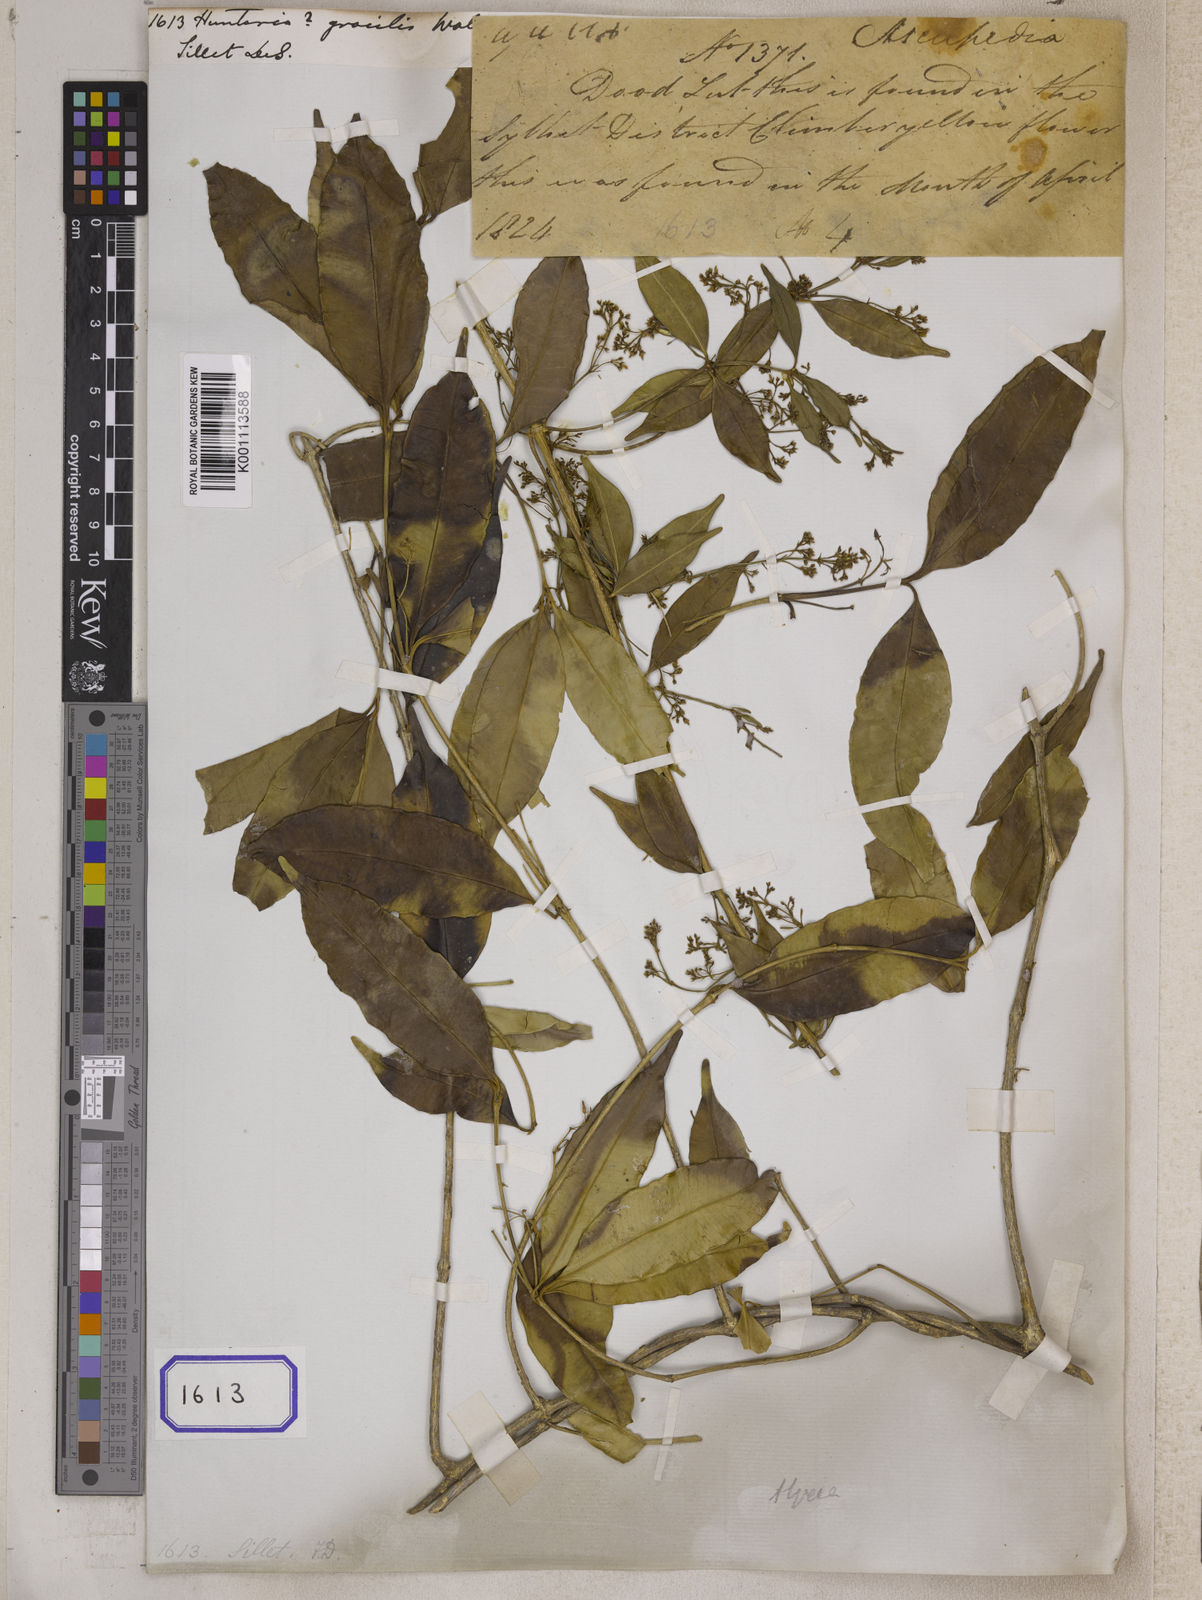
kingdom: Plantae
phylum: Tracheophyta
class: Magnoliopsida
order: Gentianales
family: Apocynaceae
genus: Hunteria
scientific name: Hunteria
